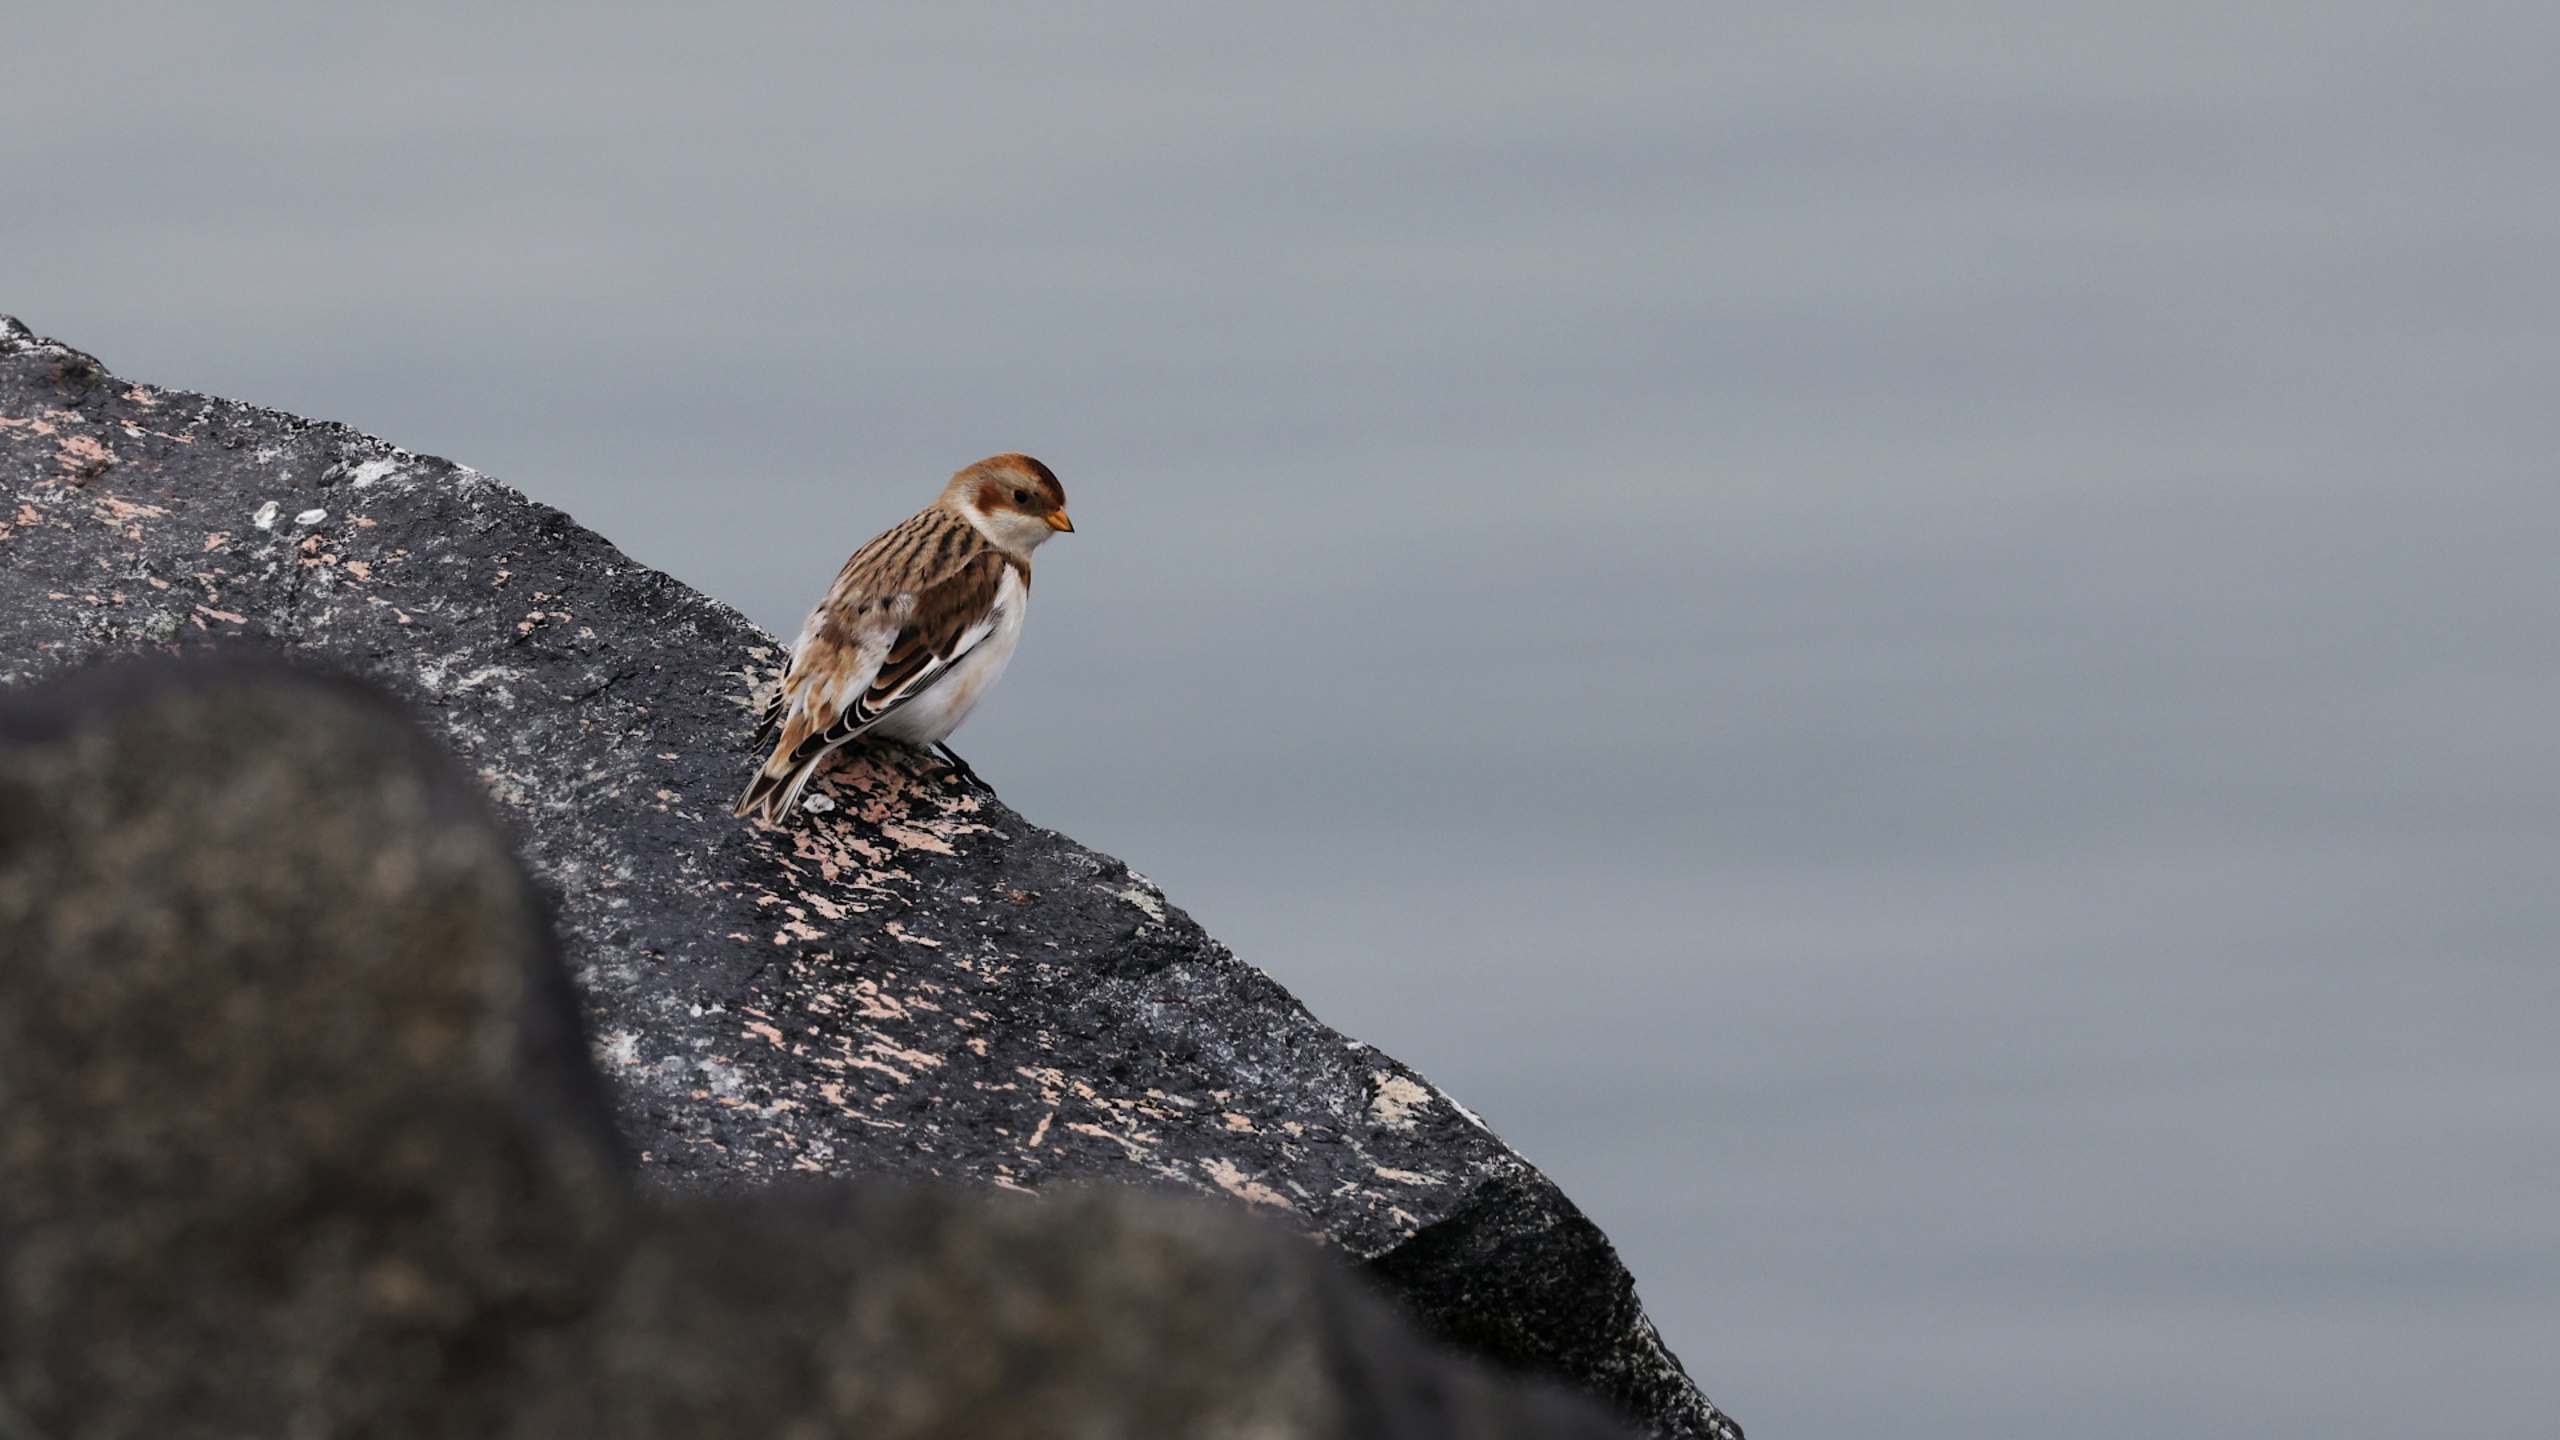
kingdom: Animalia
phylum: Chordata
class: Aves
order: Passeriformes
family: Calcariidae
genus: Plectrophenax
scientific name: Plectrophenax nivalis
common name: Snespurv
